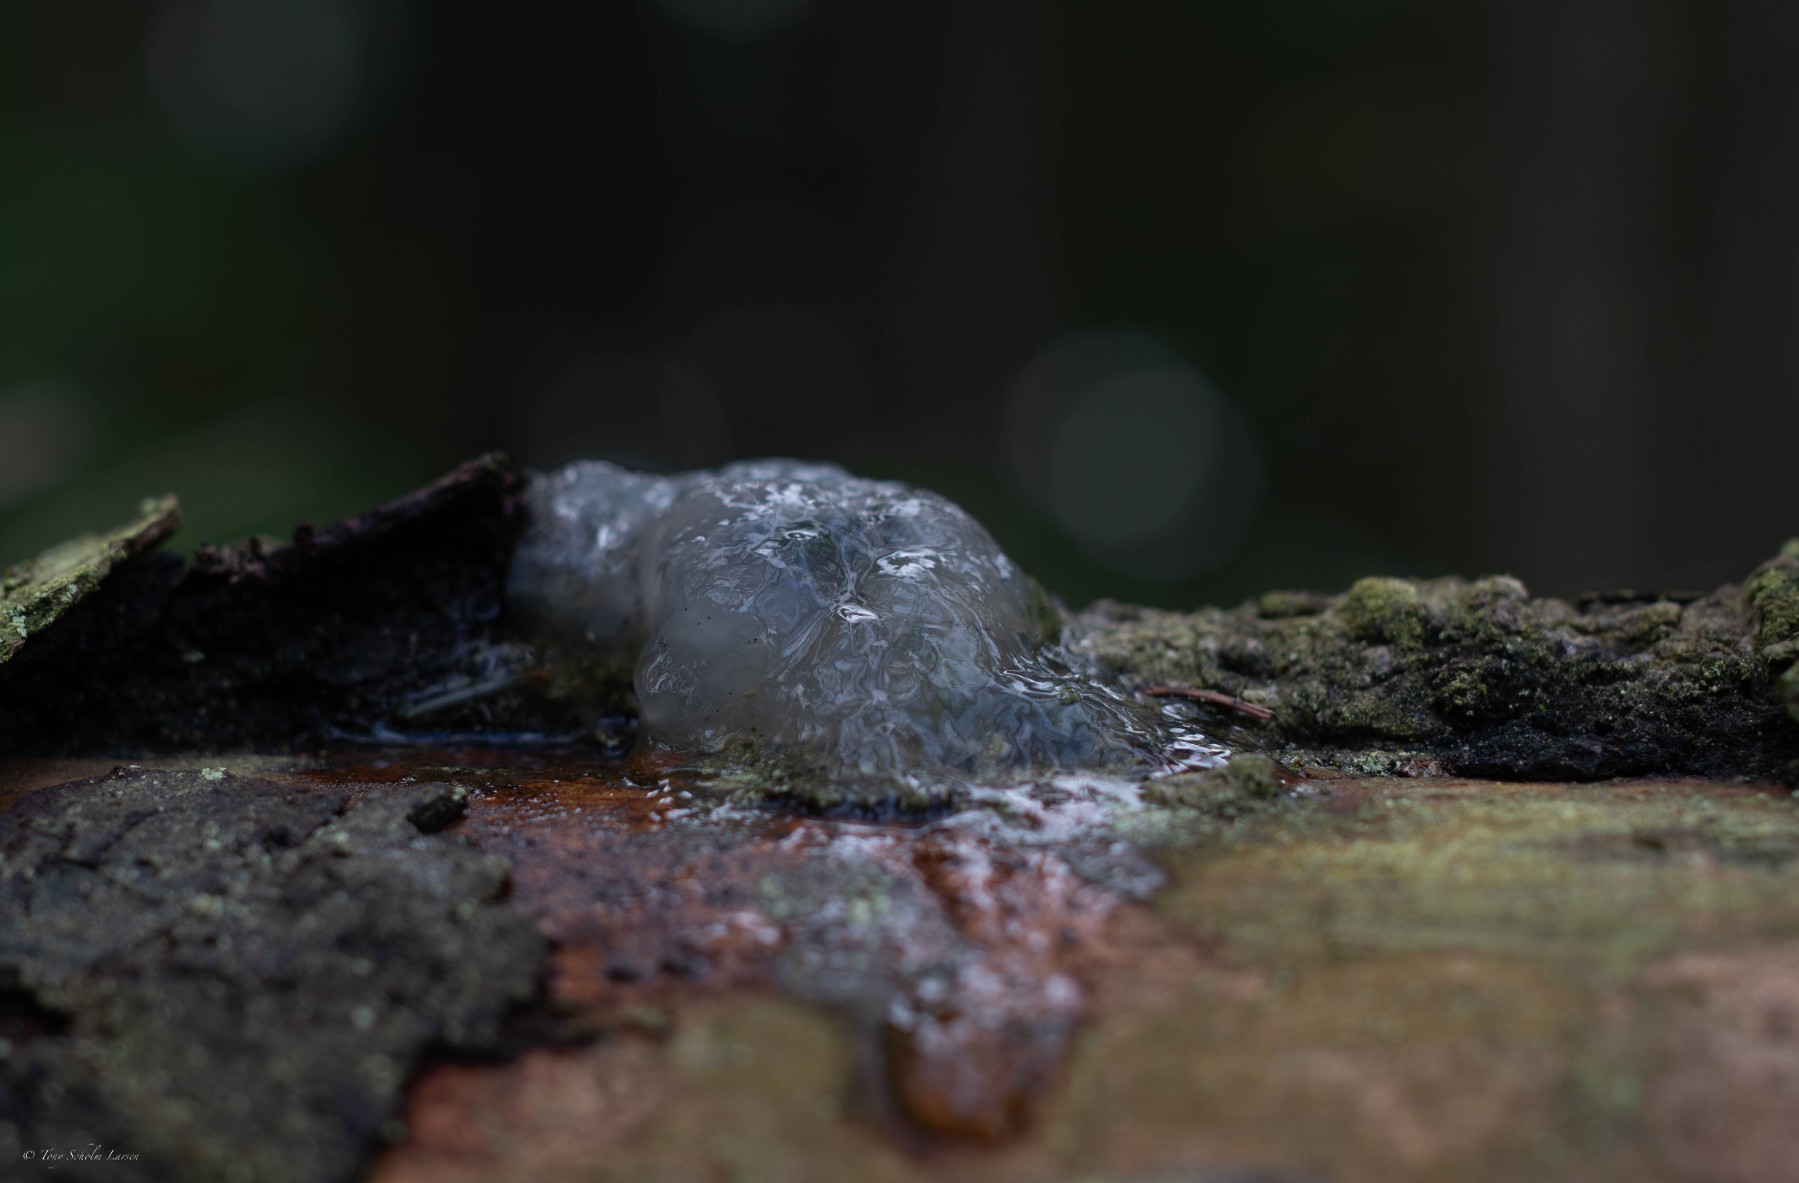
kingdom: Fungi
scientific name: Fungi
